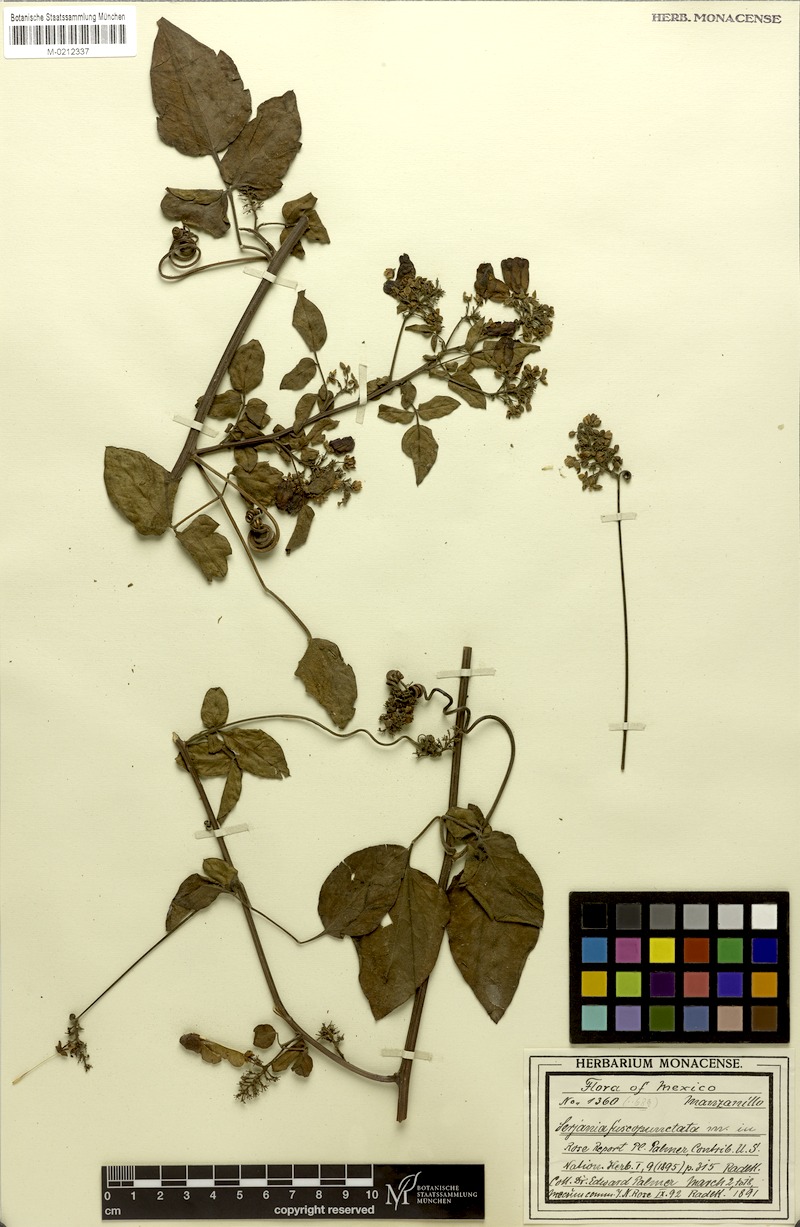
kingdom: Plantae
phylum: Tracheophyta
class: Magnoliopsida
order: Sapindales
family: Sapindaceae
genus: Serjania
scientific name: Serjania fuscopunctata
